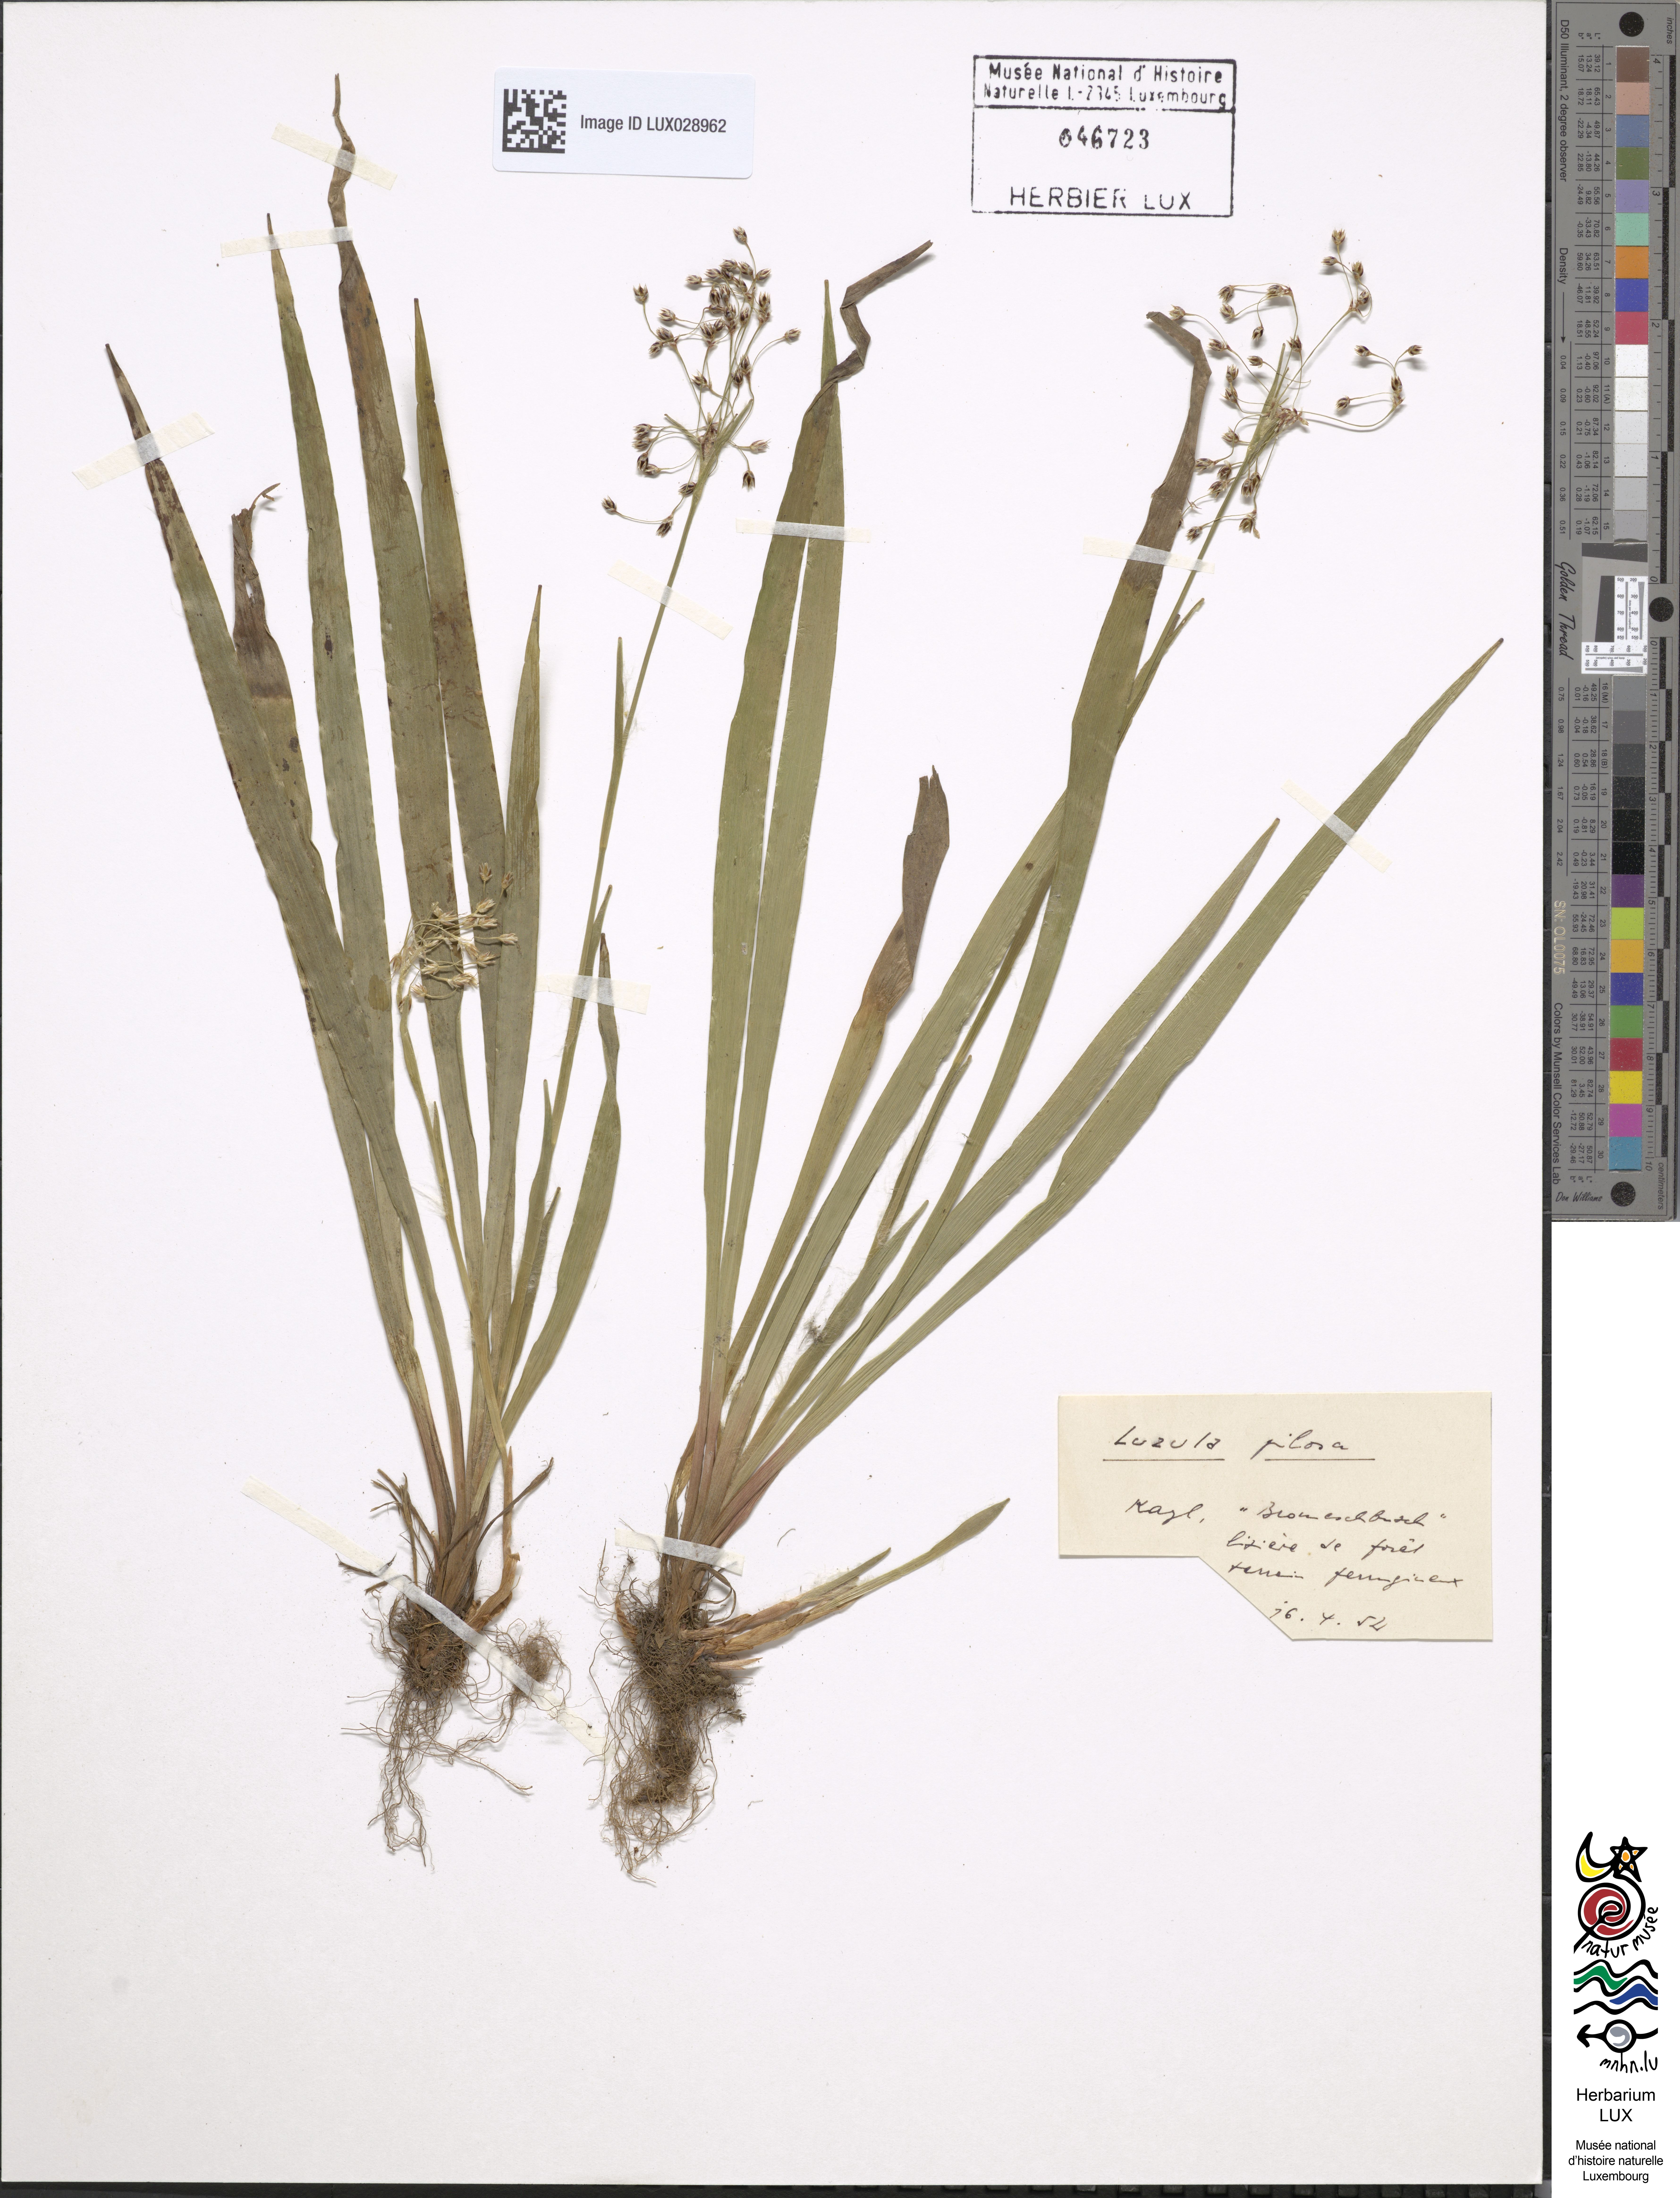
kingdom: Plantae
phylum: Tracheophyta
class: Liliopsida
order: Poales
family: Juncaceae
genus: Luzula
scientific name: Luzula pilosa
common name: Hairy wood-rush
